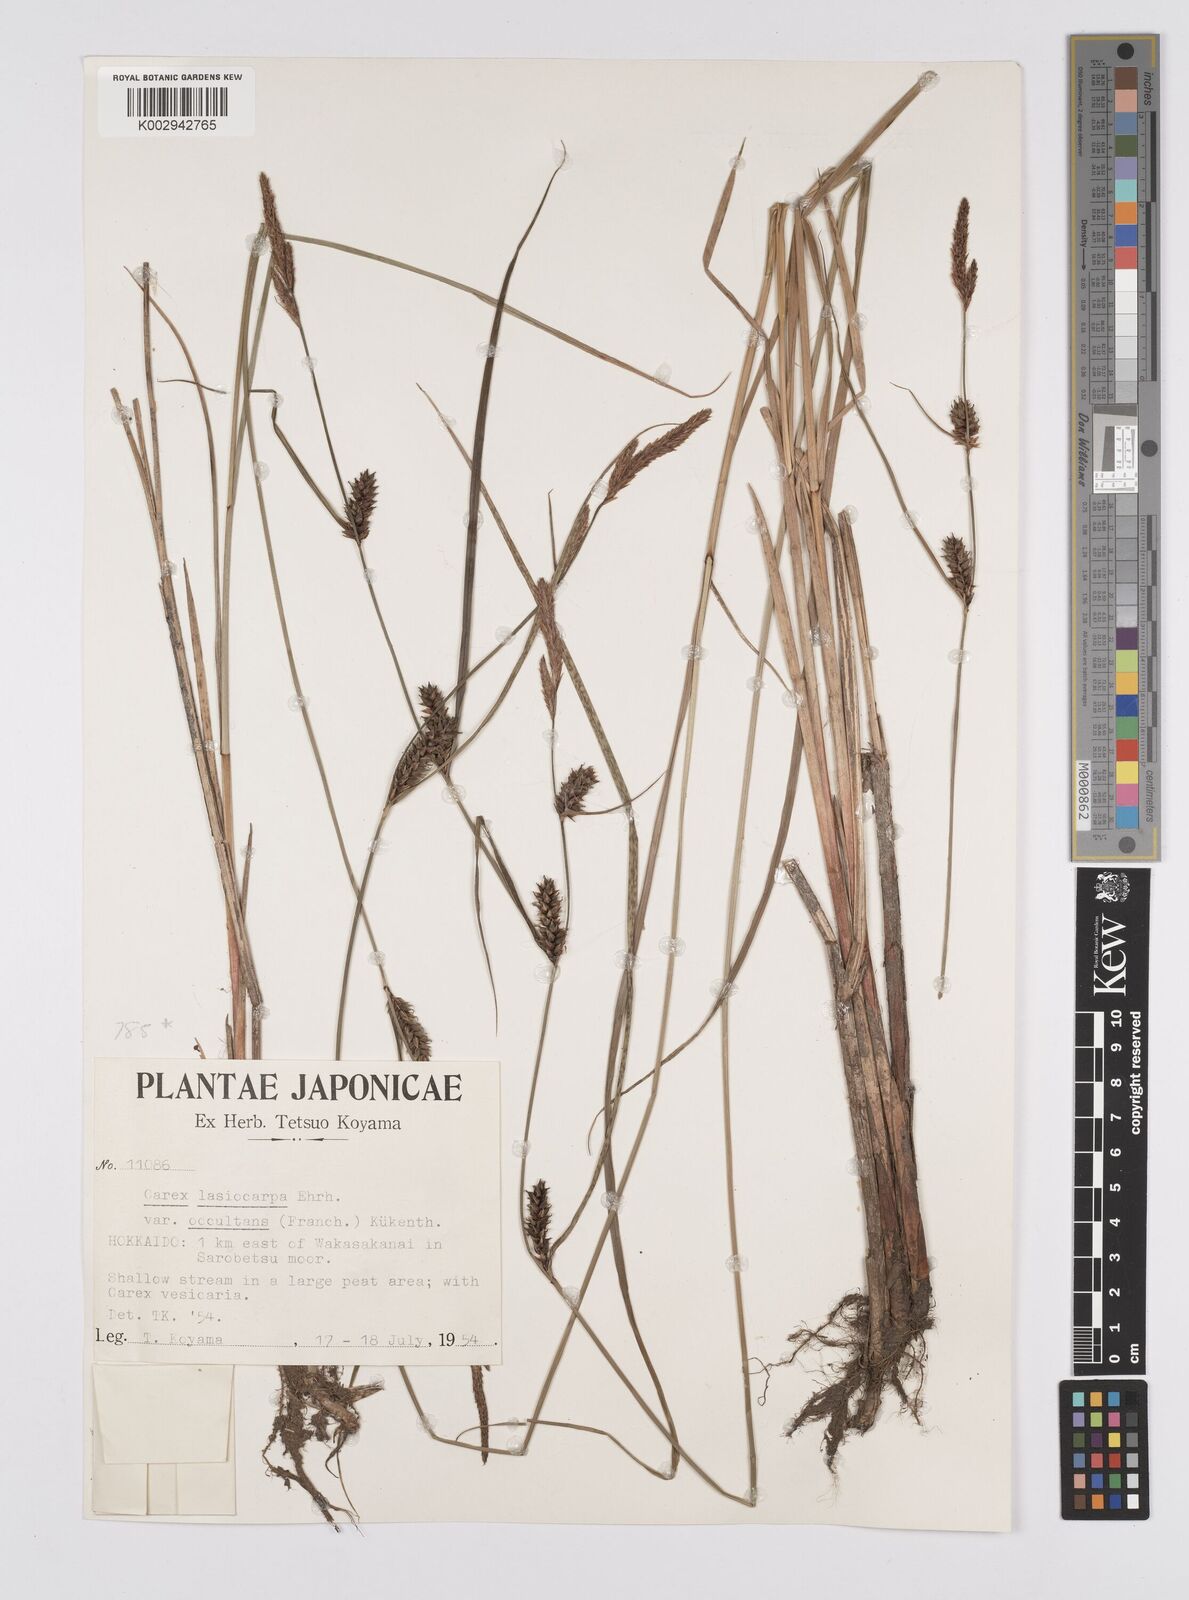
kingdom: Plantae
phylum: Tracheophyta
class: Liliopsida
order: Poales
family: Cyperaceae
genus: Carex
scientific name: Carex lasiocarpa
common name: Slender sedge
